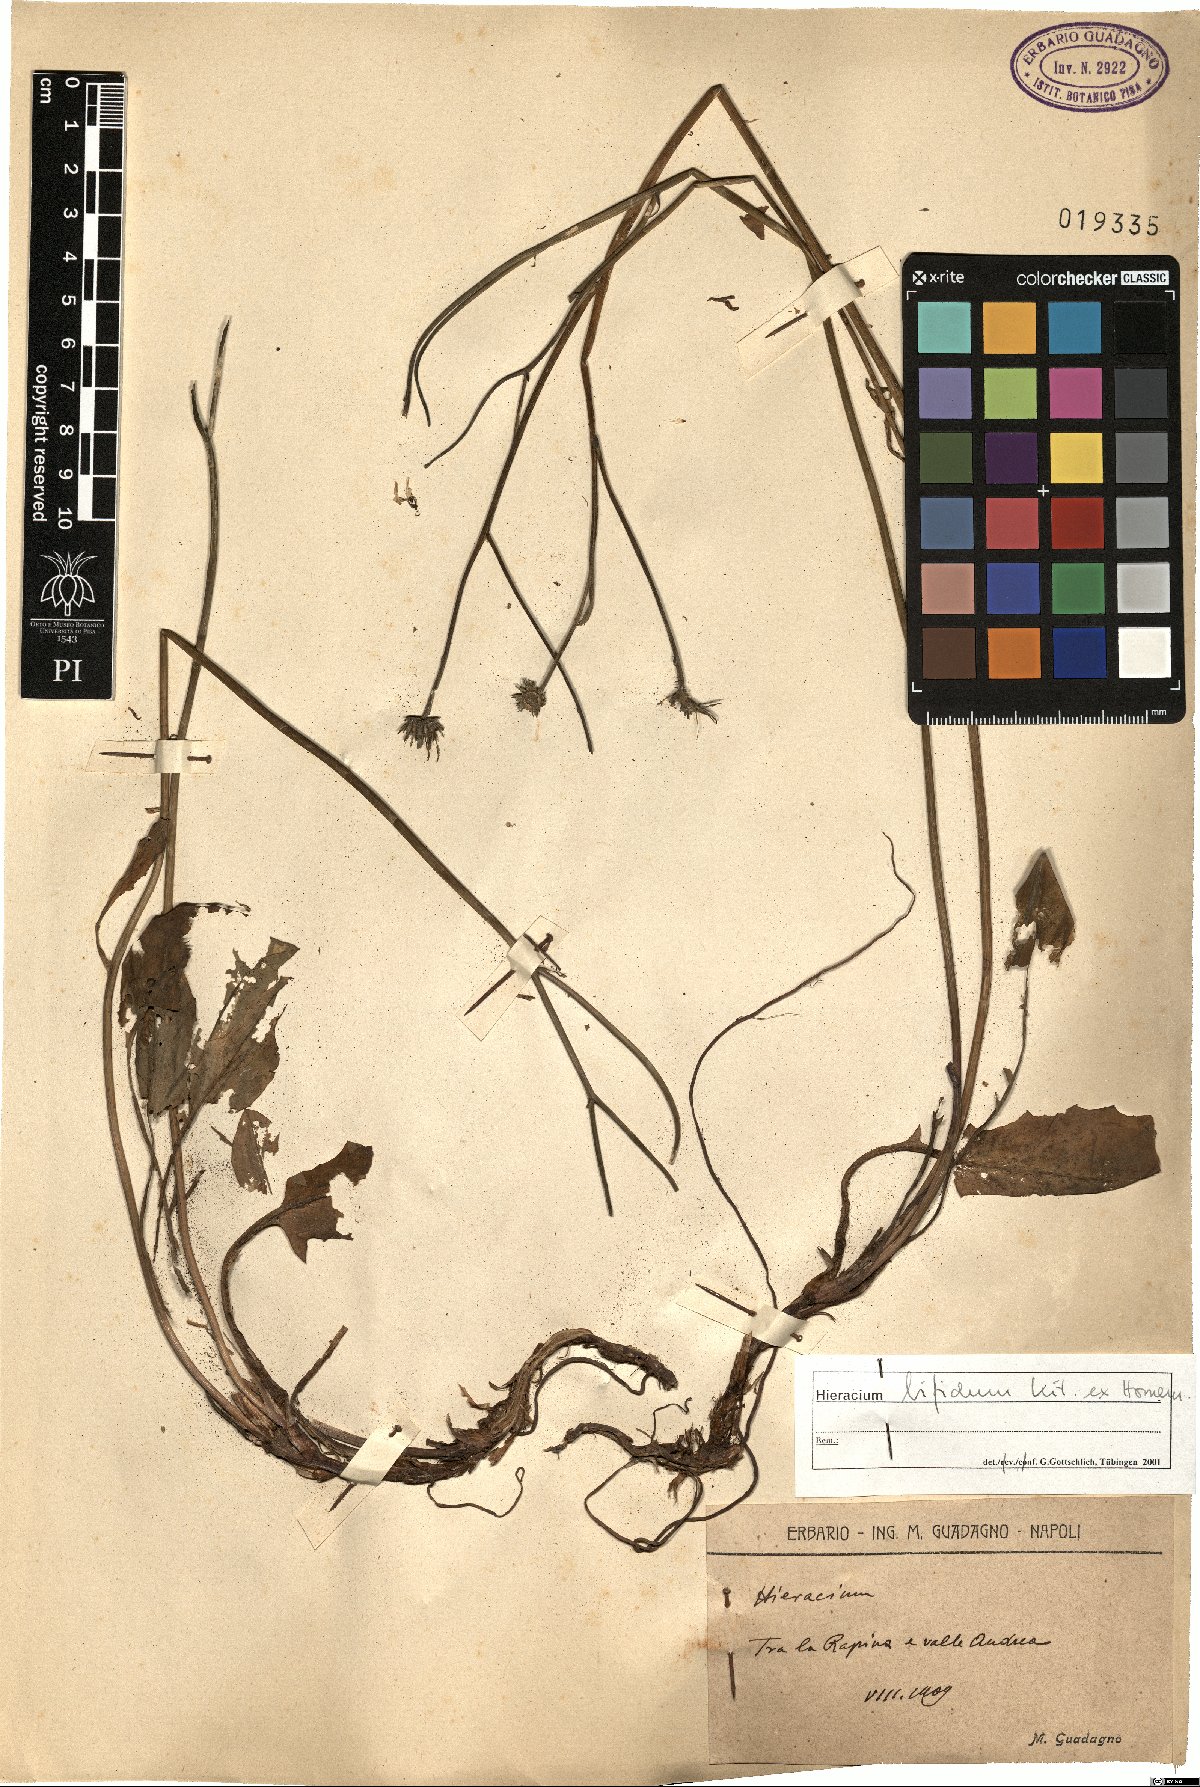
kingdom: Plantae
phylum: Tracheophyta
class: Magnoliopsida
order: Asterales
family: Asteraceae
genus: Hieracium
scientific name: Hieracium bifidum
